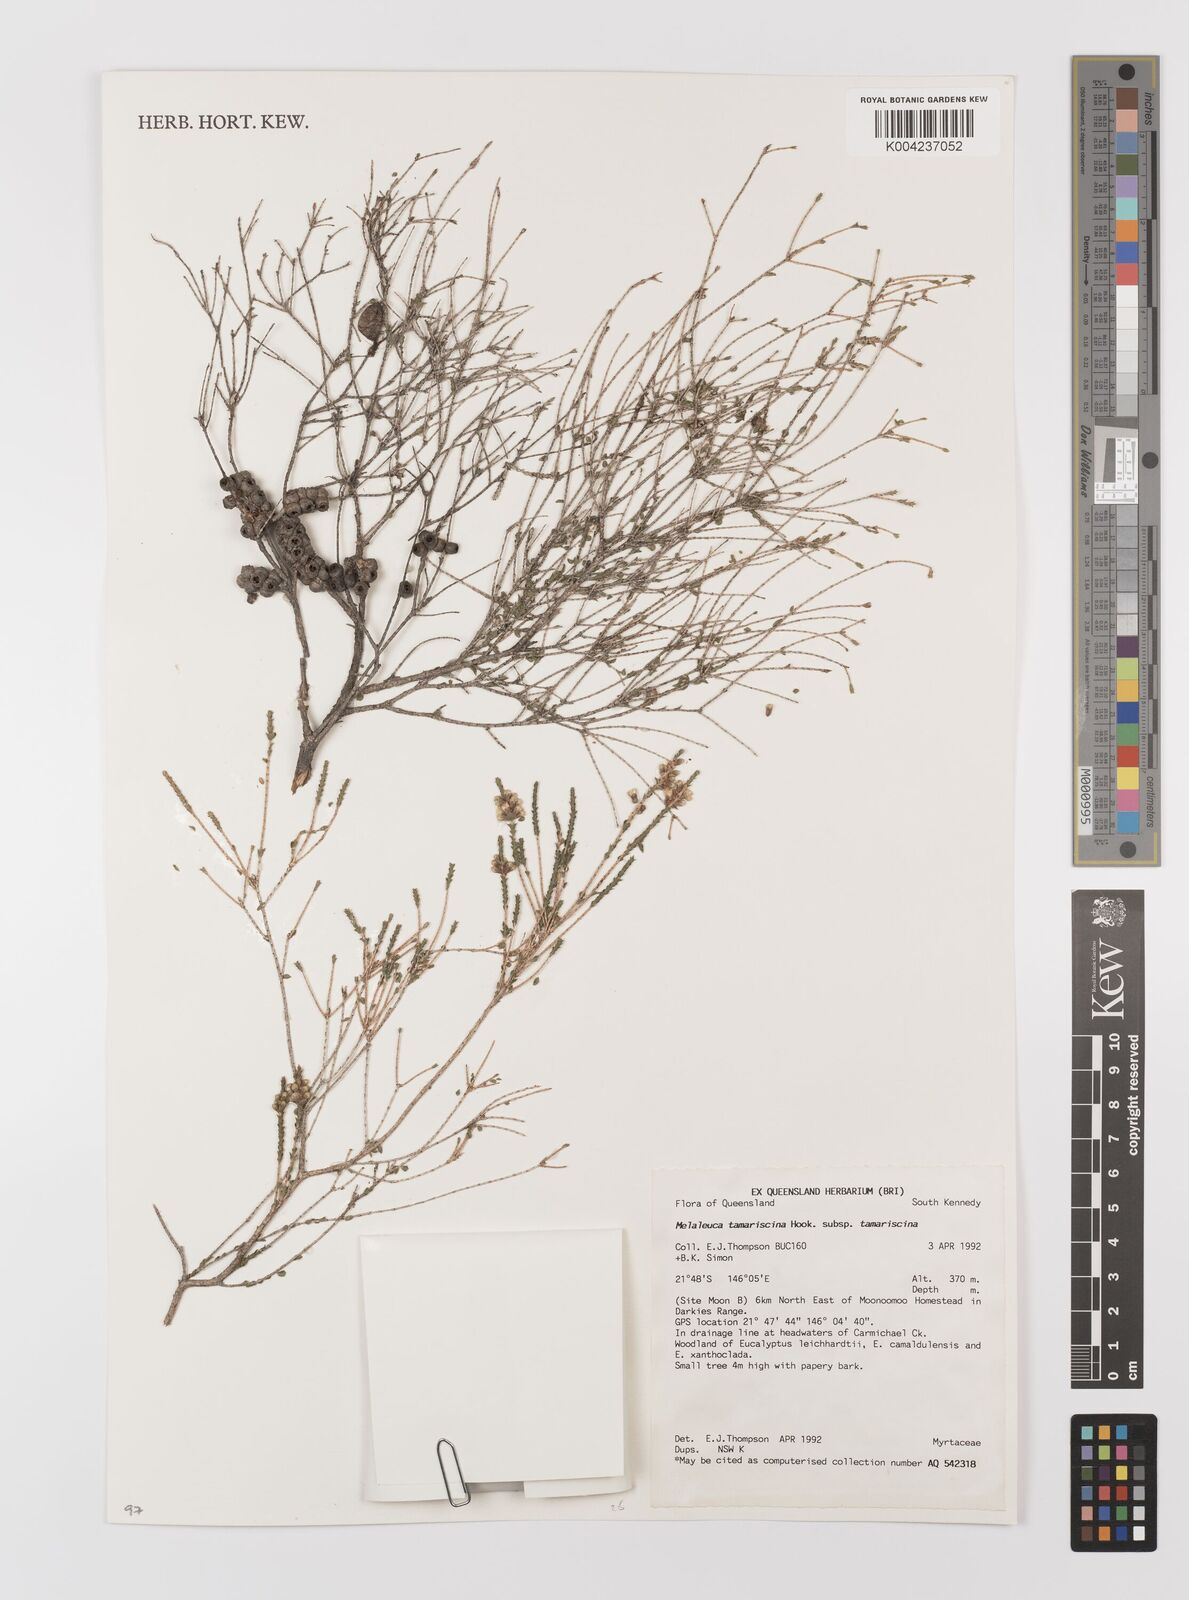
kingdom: Plantae
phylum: Tracheophyta
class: Magnoliopsida
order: Myrtales
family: Myrtaceae
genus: Melaleuca
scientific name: Melaleuca tamariscina
